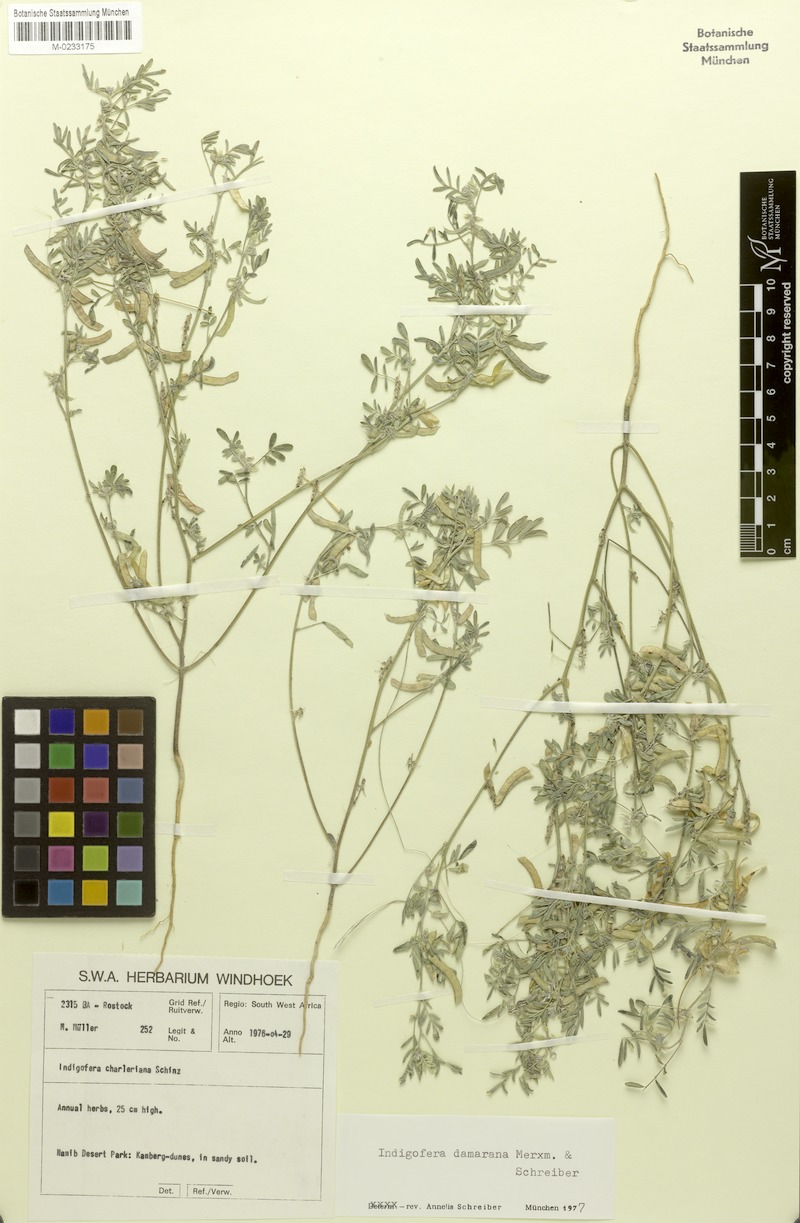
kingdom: Plantae
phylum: Tracheophyta
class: Magnoliopsida
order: Fabales
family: Fabaceae
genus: Indigofera
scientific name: Indigofera damarana
